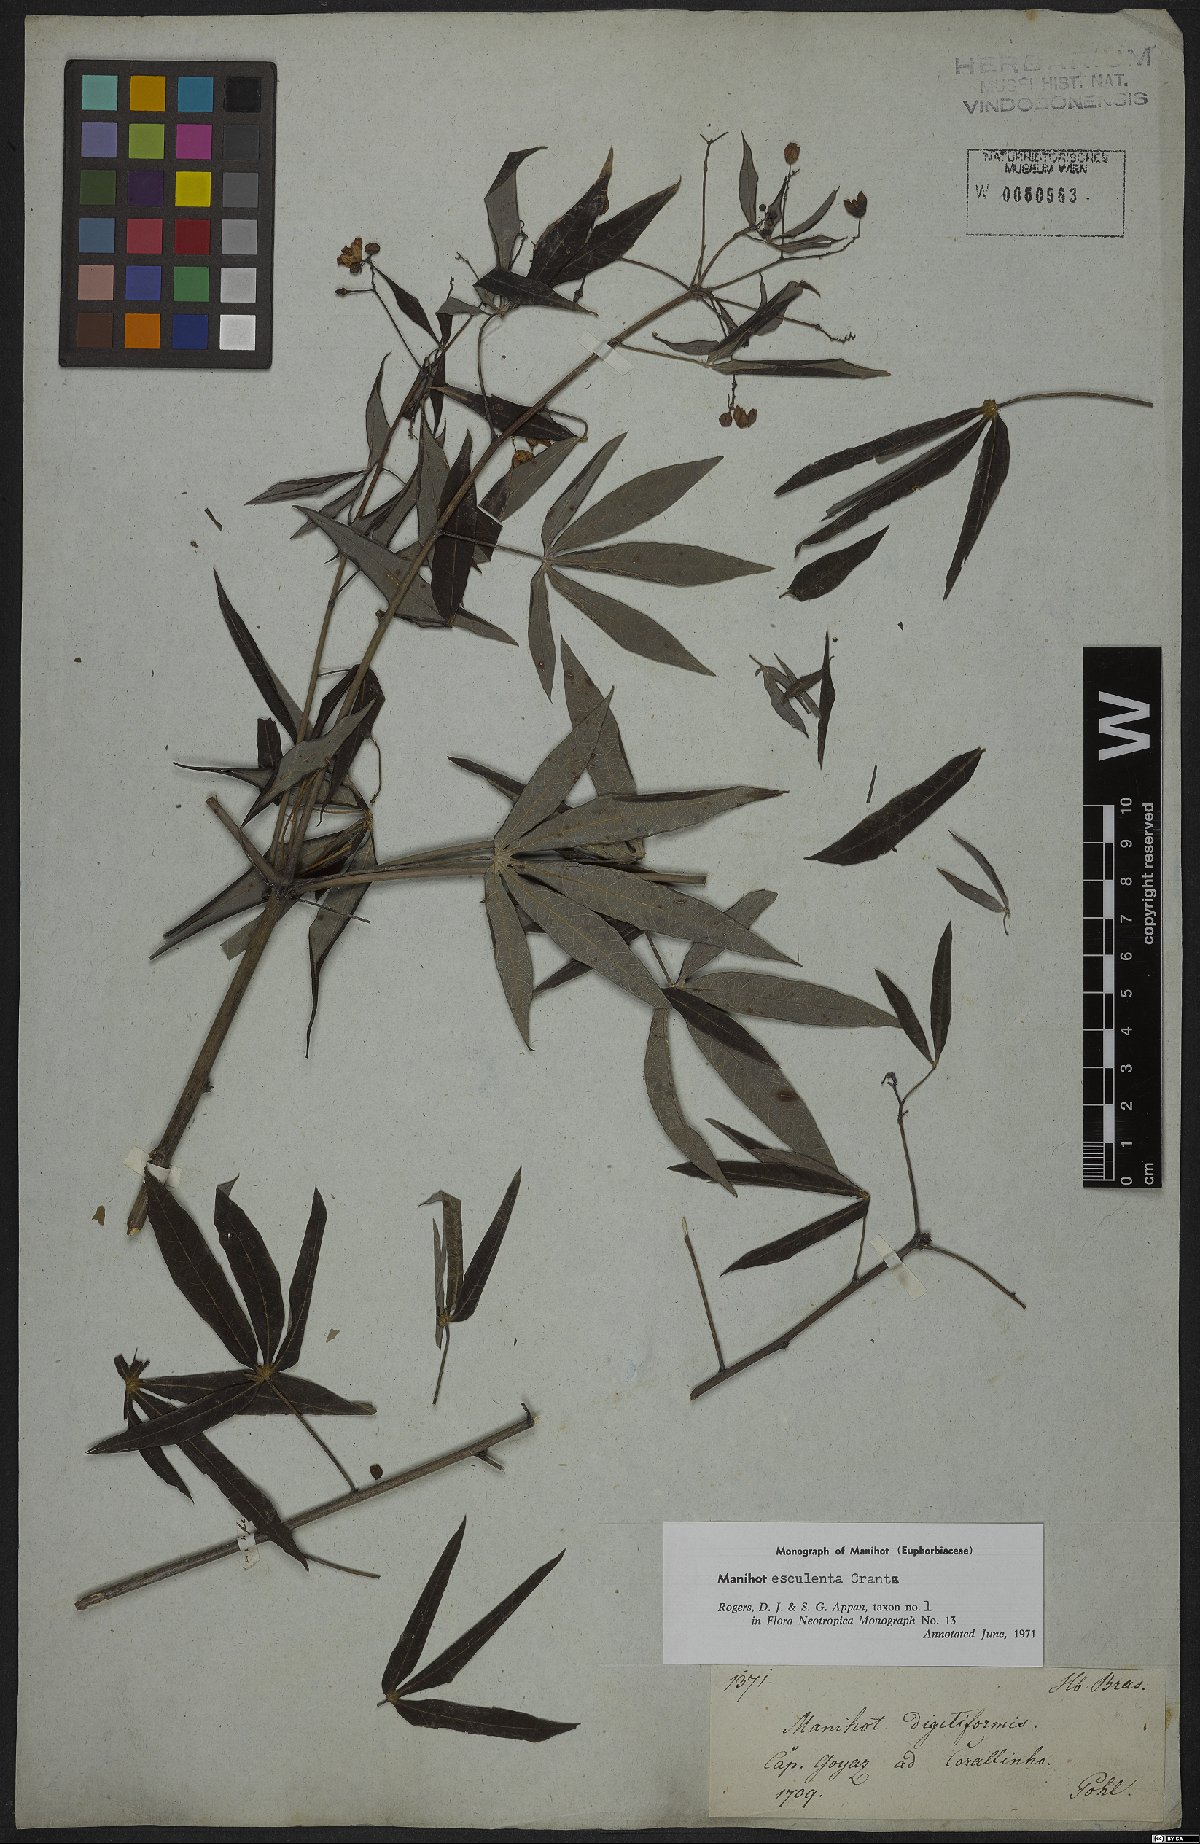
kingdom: Plantae
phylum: Tracheophyta
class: Magnoliopsida
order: Malpighiales
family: Euphorbiaceae
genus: Manihot
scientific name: Manihot esculenta
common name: Cassava
